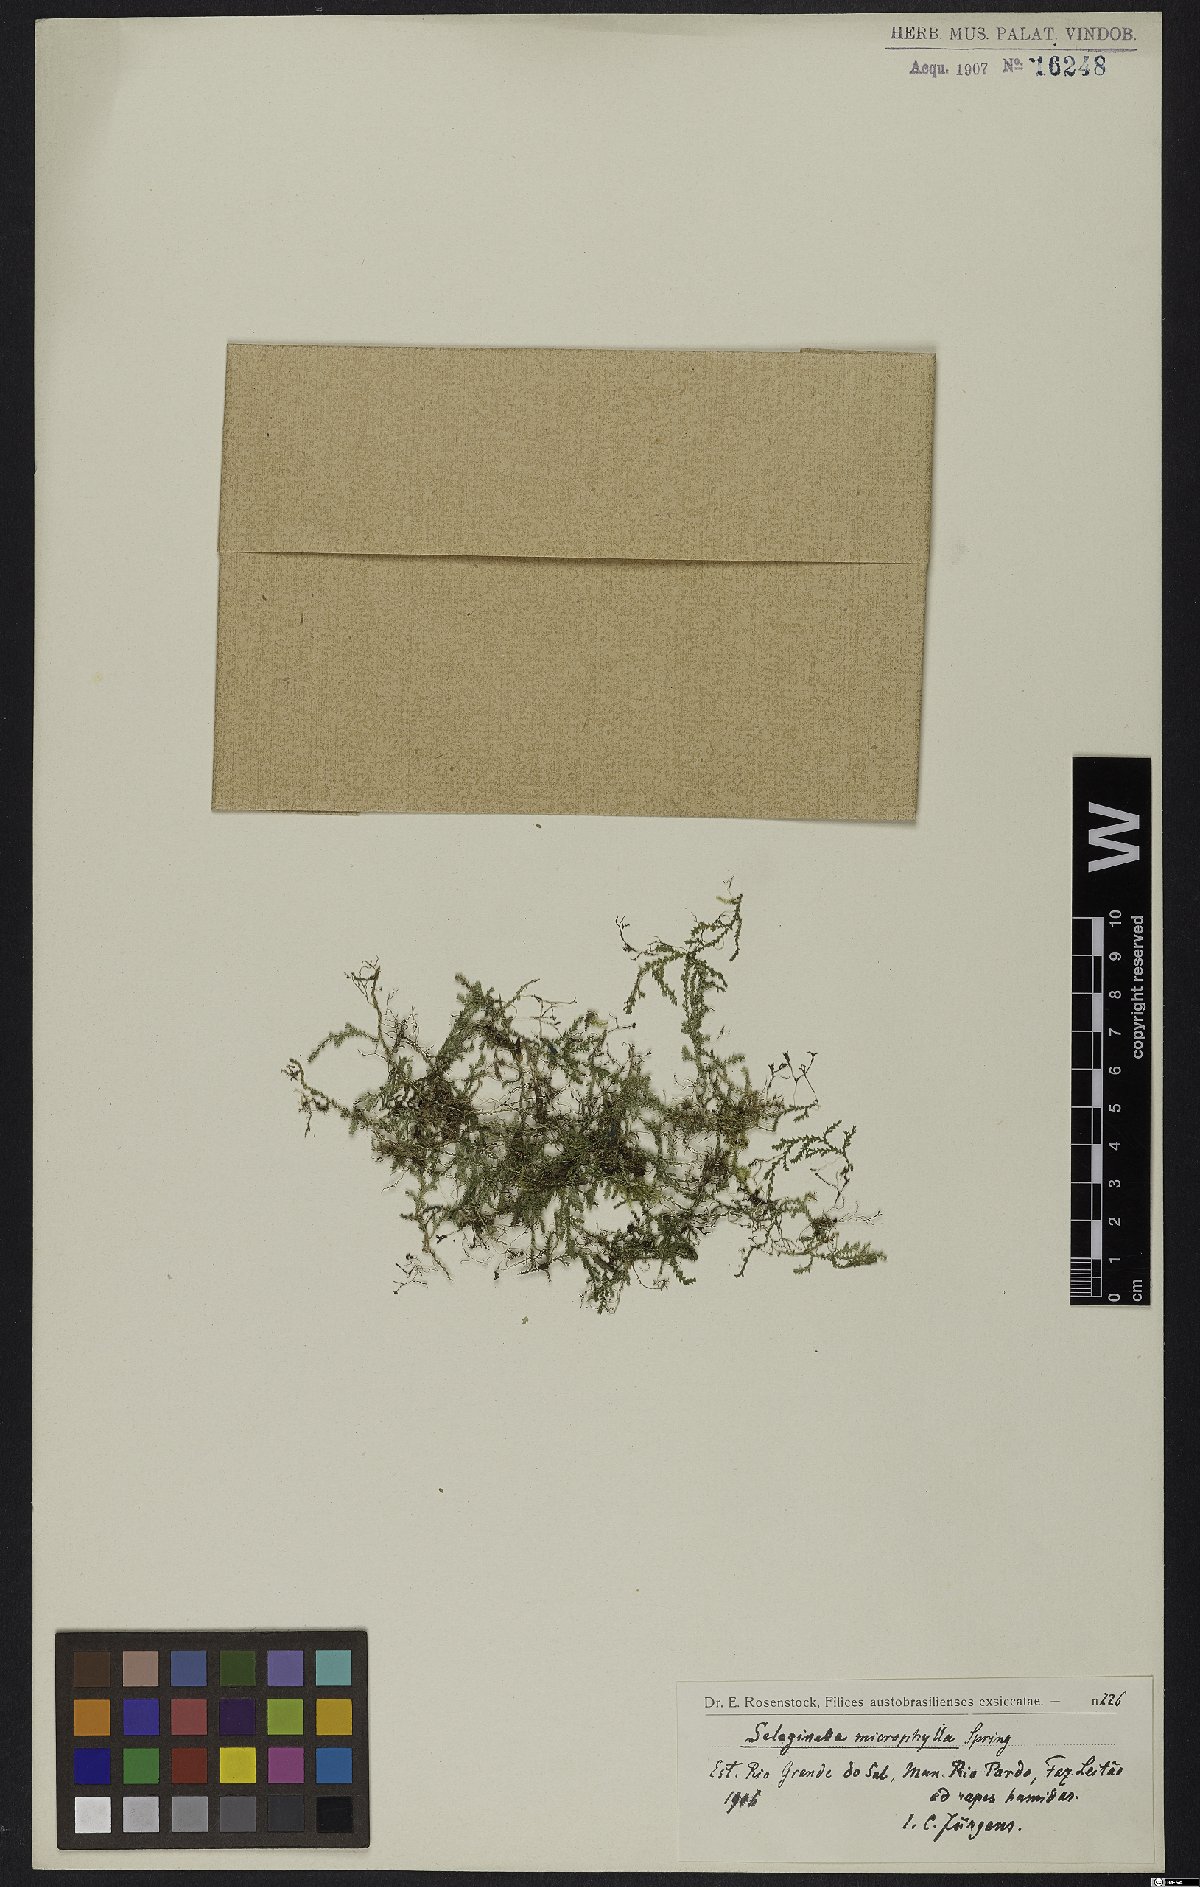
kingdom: Plantae
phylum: Tracheophyta
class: Lycopodiopsida
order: Selaginellales
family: Selaginellaceae
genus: Selaginella
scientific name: Selaginella microphylla
